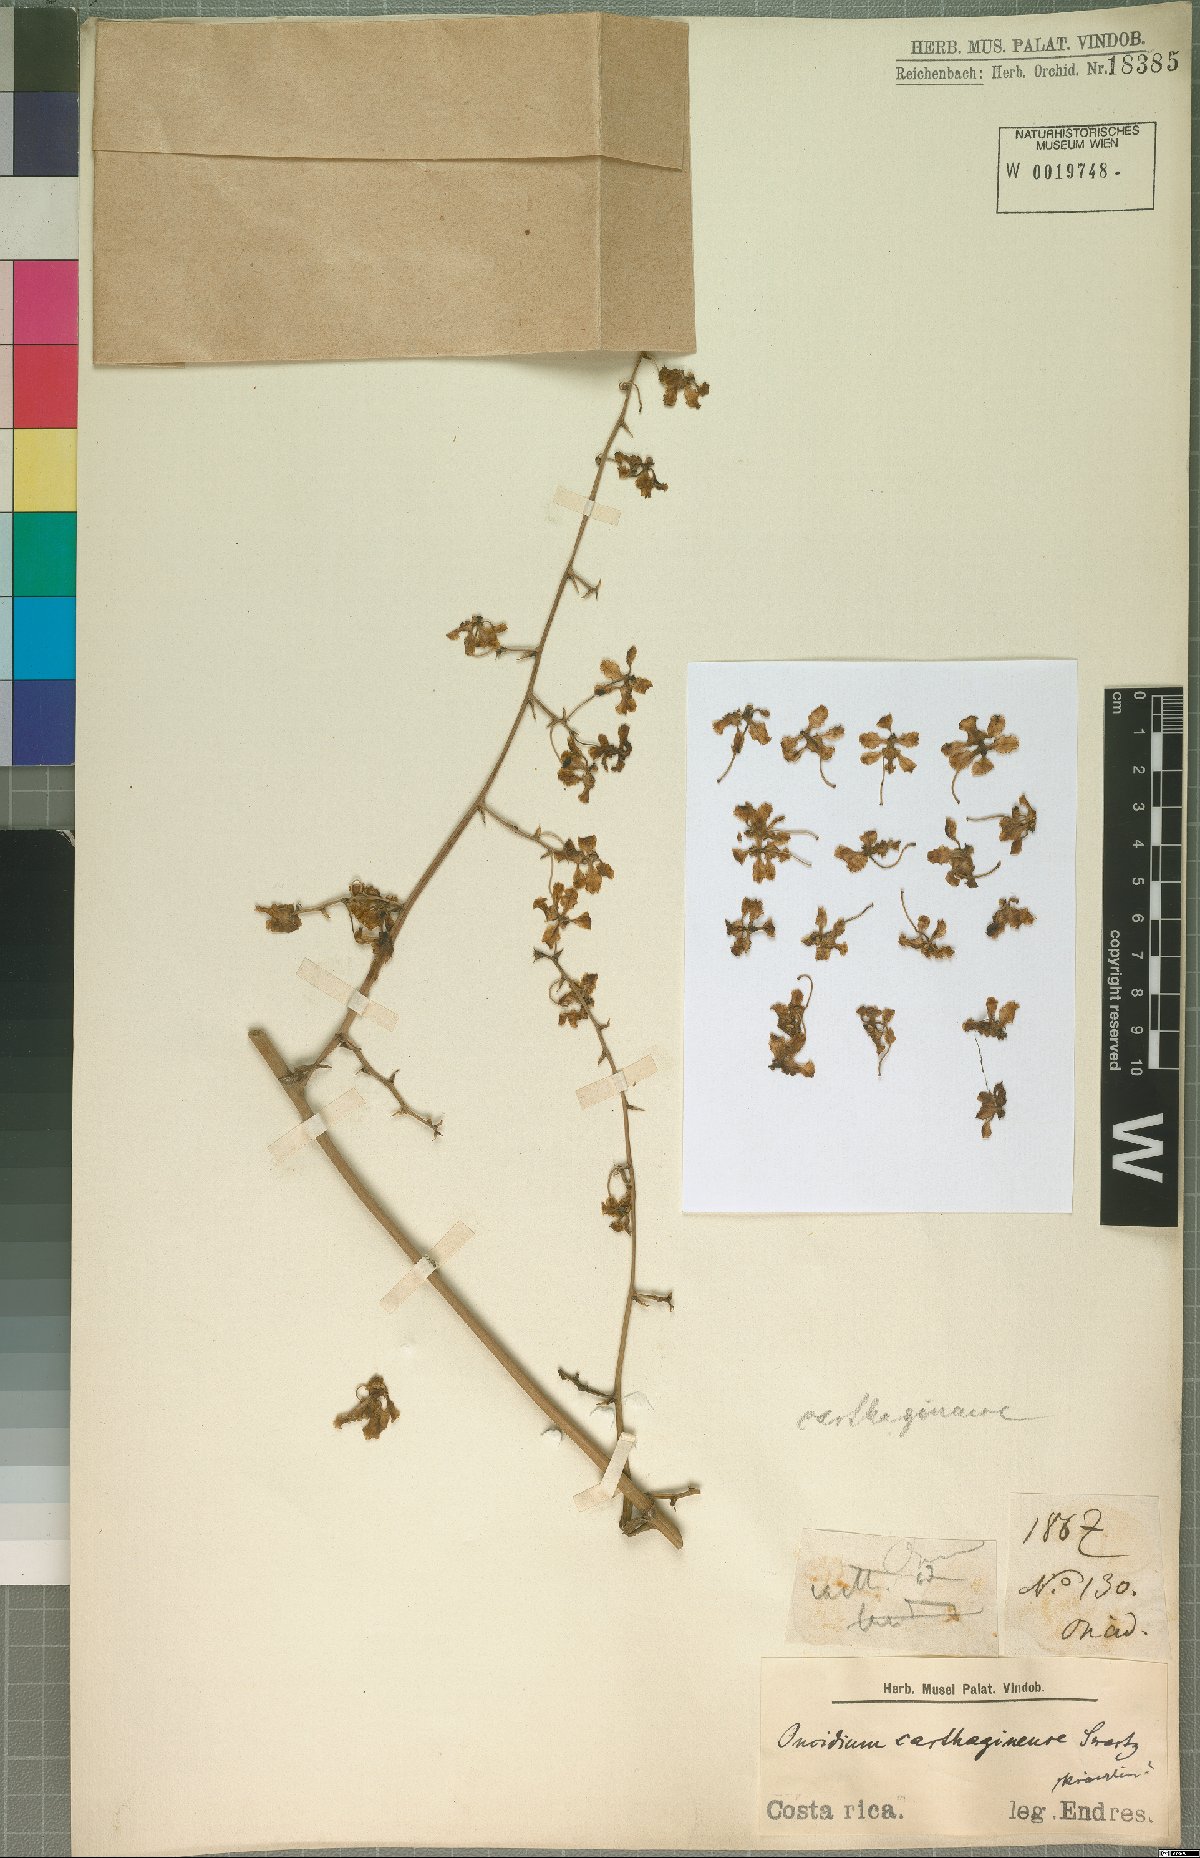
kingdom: Plantae
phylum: Tracheophyta
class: Liliopsida
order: Asparagales
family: Orchidaceae
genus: Trichocentrum
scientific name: Trichocentrum carthagenense
